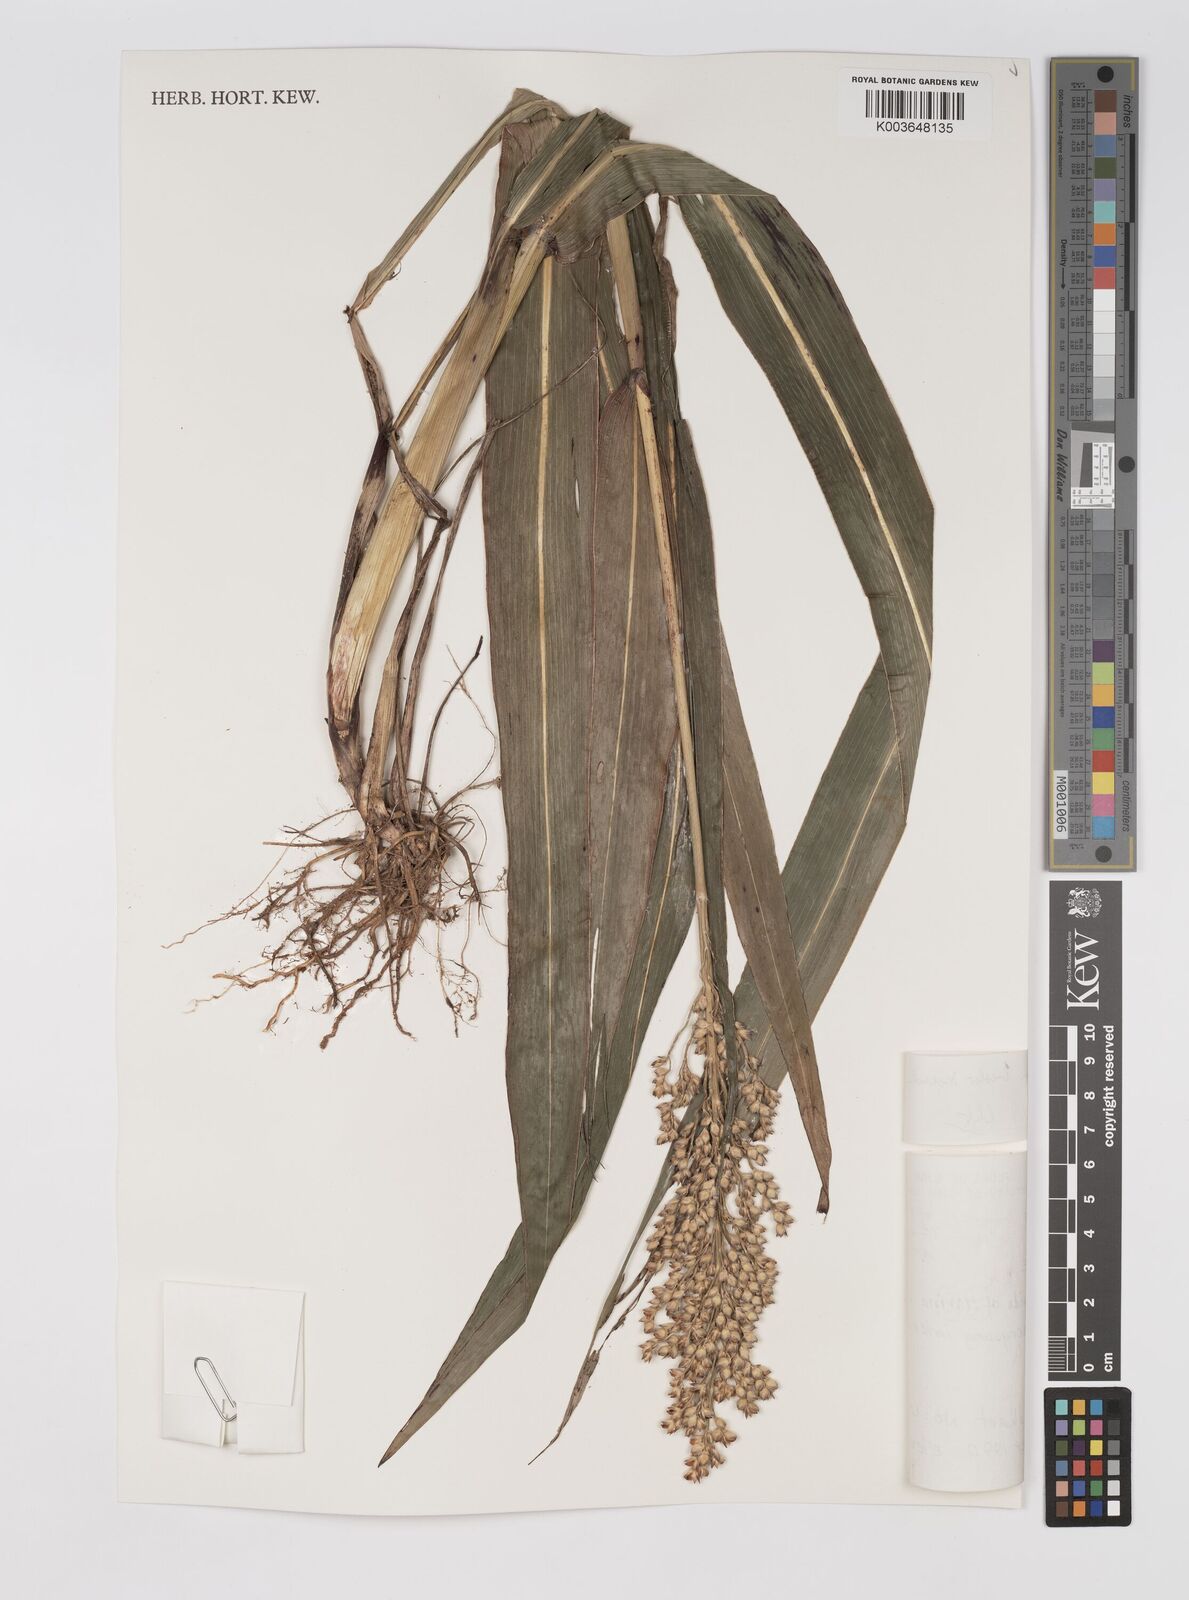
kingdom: Plantae
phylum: Tracheophyta
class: Liliopsida
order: Poales
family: Poaceae
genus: Sorghum
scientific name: Sorghum bicolor
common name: Sorghum
